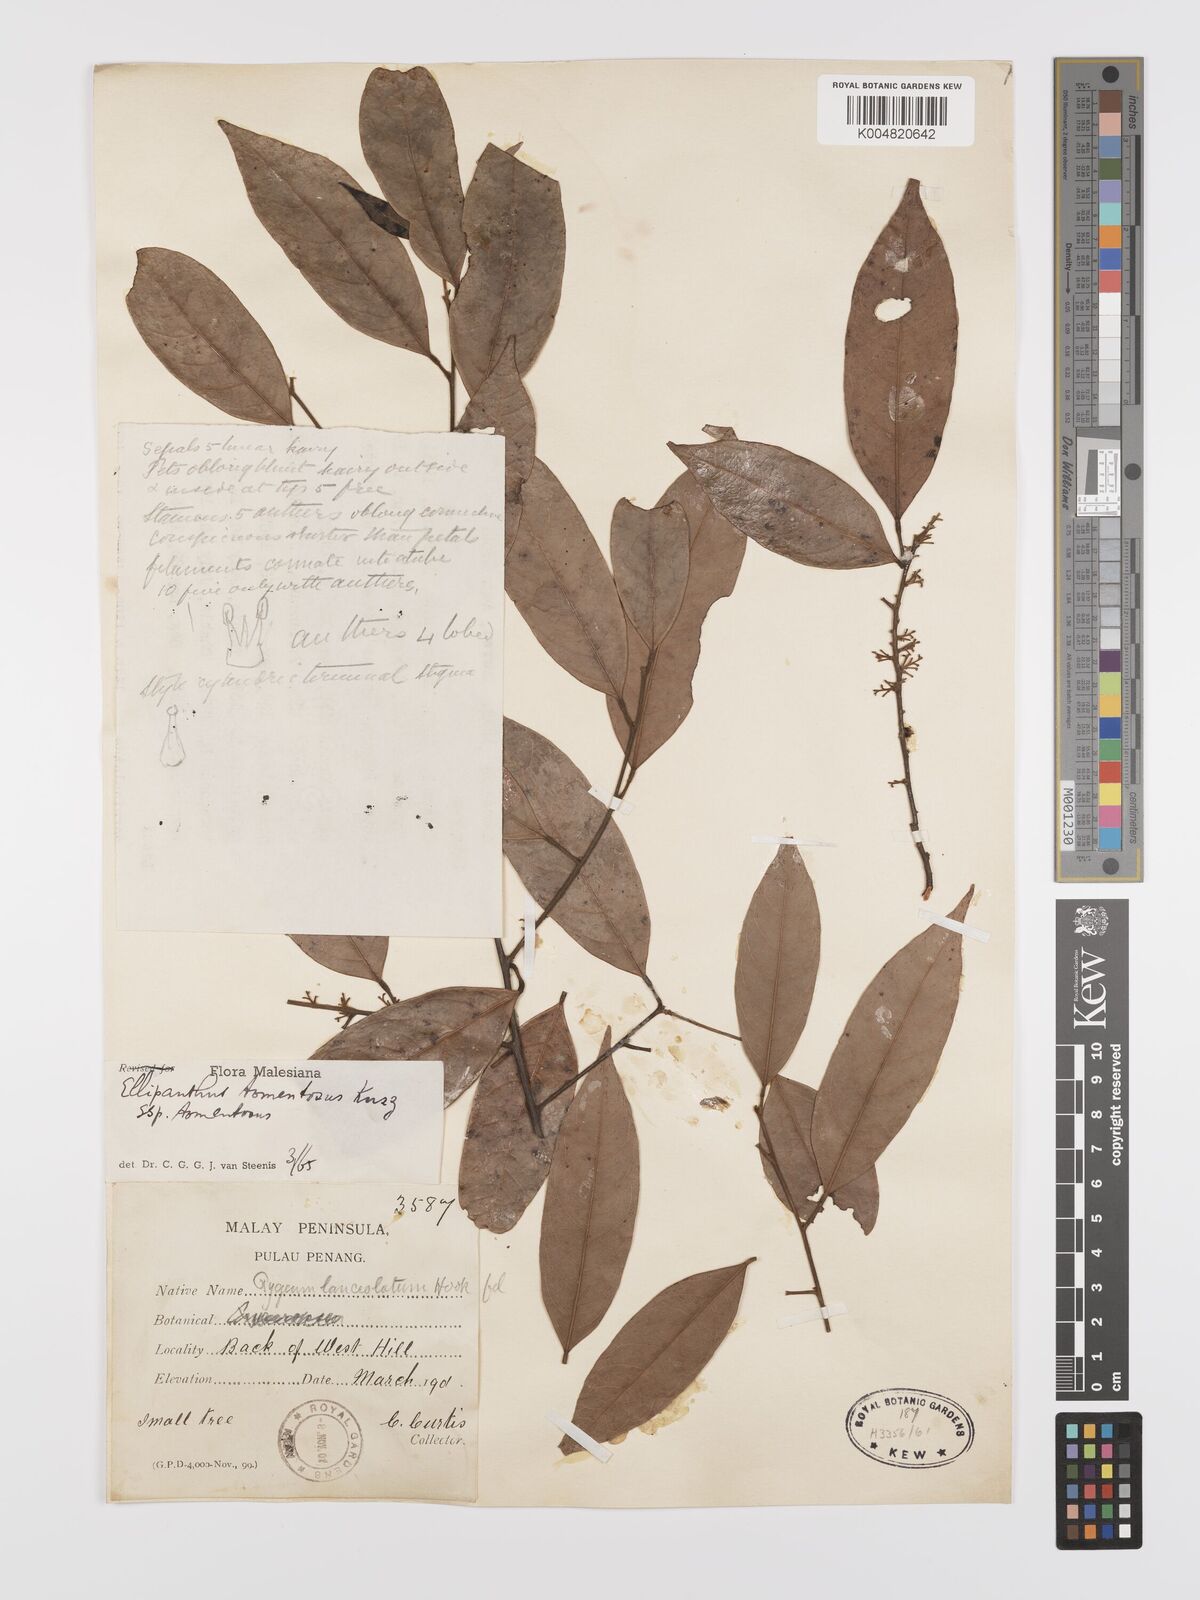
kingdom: Plantae
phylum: Tracheophyta
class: Magnoliopsida
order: Oxalidales
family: Connaraceae
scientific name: Connaraceae
